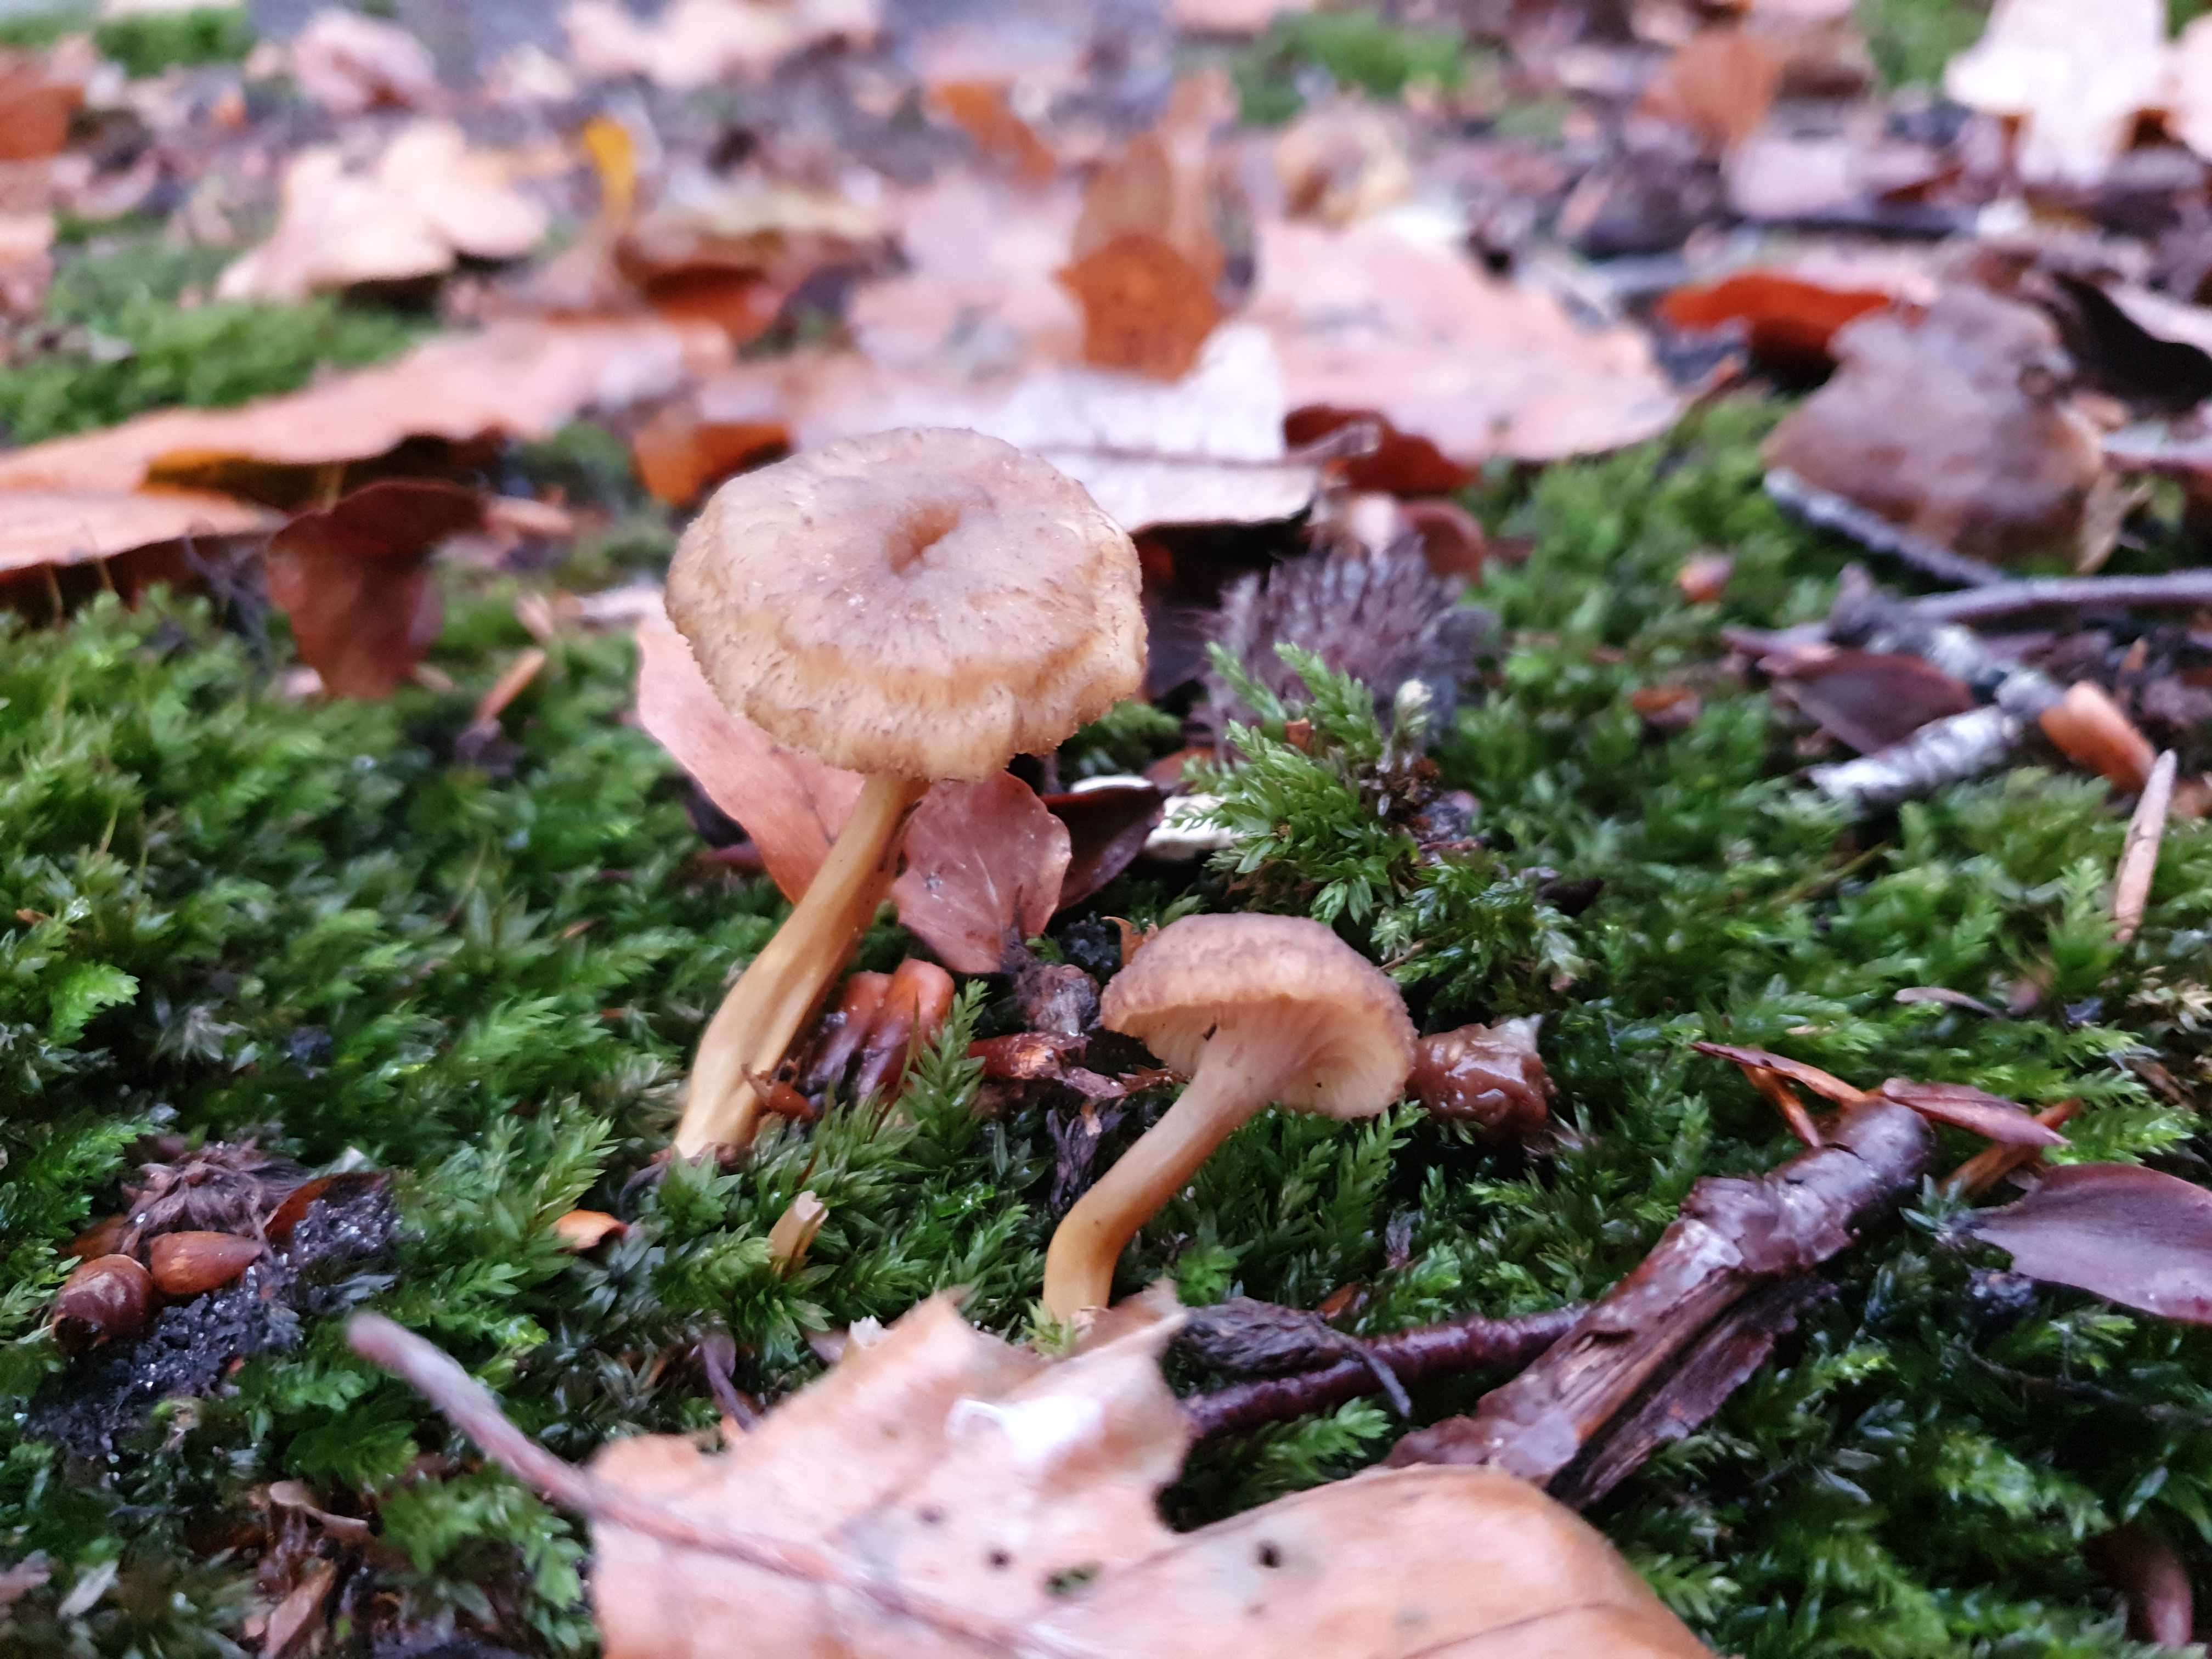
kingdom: Fungi
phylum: Basidiomycota
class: Agaricomycetes
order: Cantharellales
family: Hydnaceae
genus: Craterellus
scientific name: Craterellus tubaeformis
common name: tragt-kantarel
